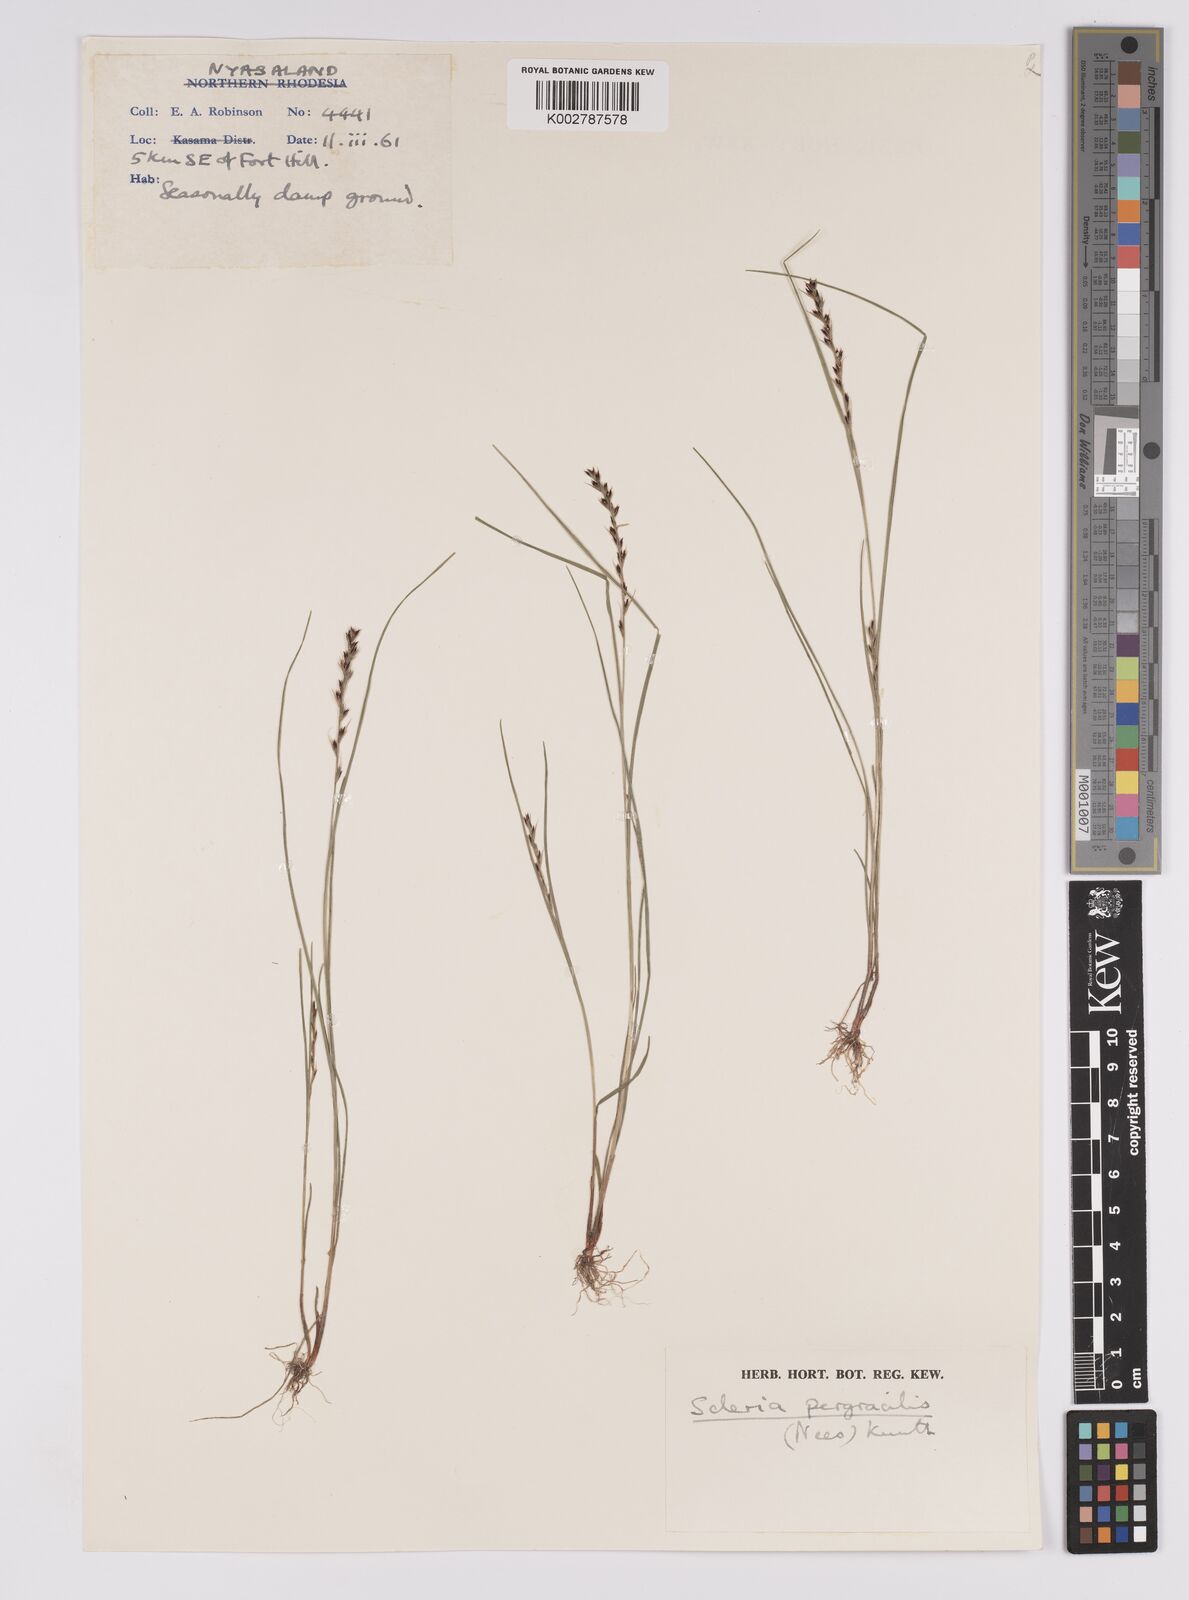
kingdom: Plantae
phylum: Tracheophyta
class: Liliopsida
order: Poales
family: Cyperaceae
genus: Scleria
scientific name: Scleria pergracilis
